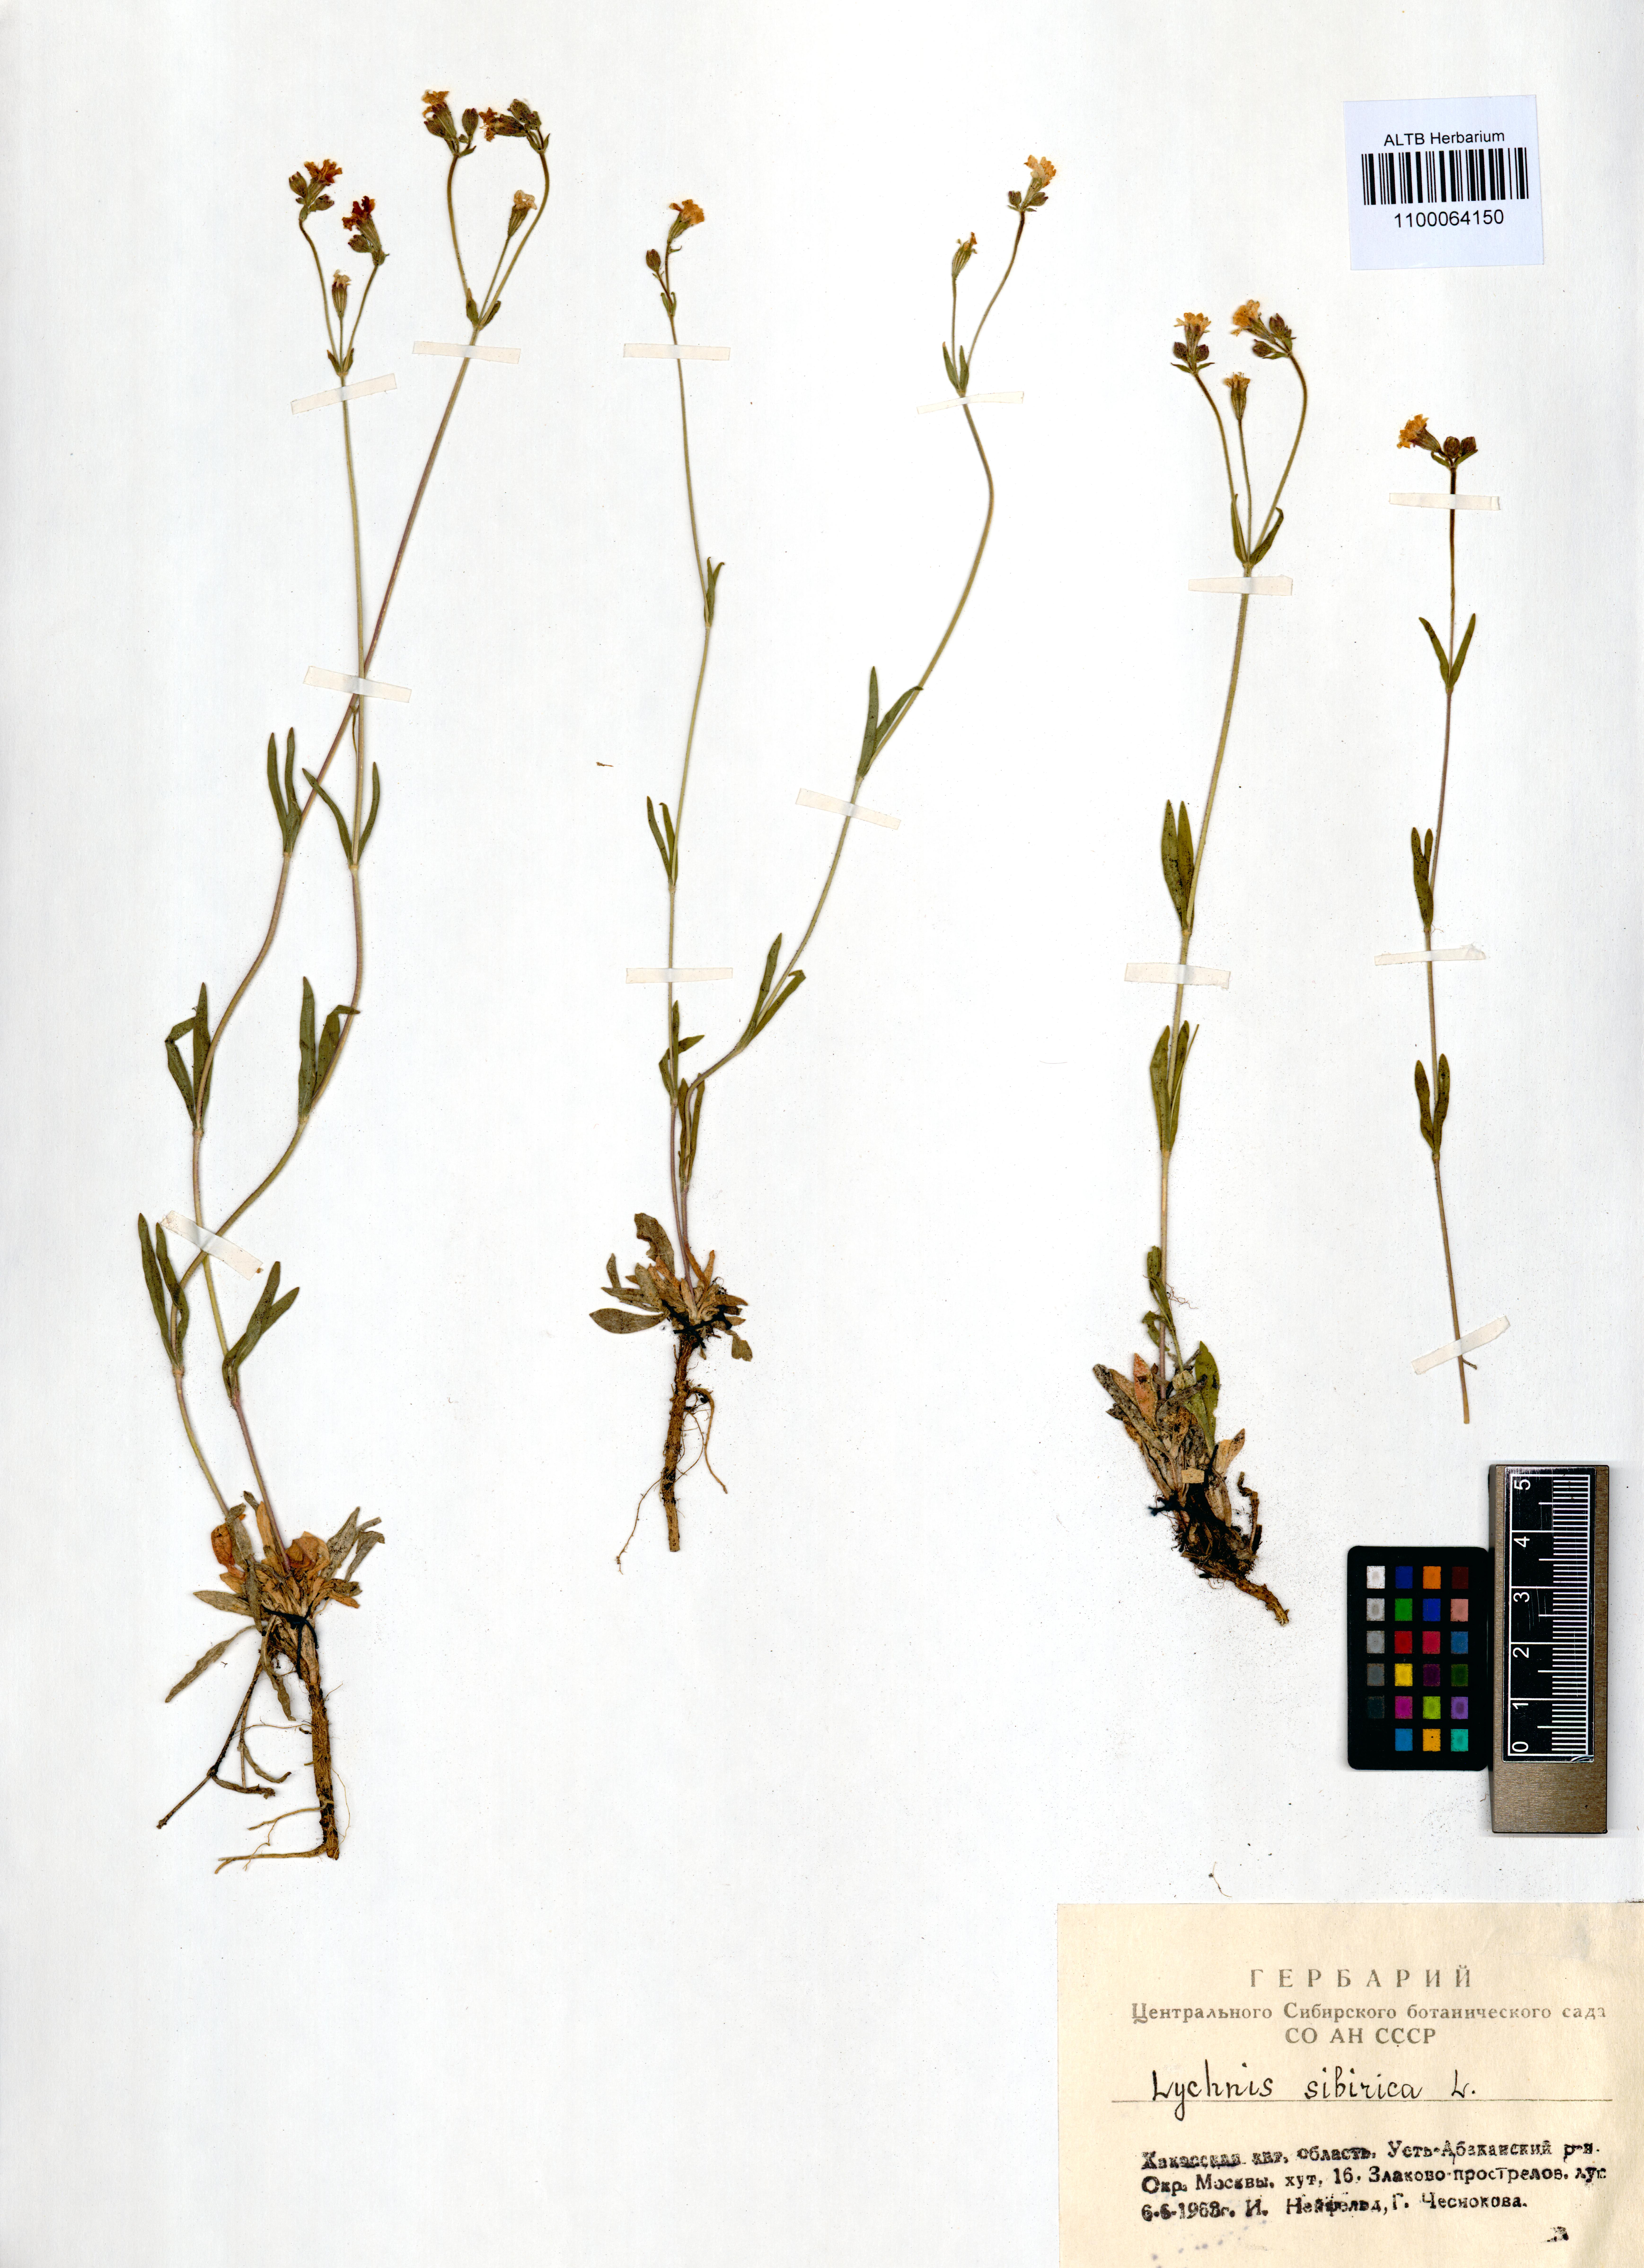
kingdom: Plantae
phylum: Tracheophyta
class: Magnoliopsida
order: Caryophyllales
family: Caryophyllaceae
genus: Silene
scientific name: Silene orientalimongolica
